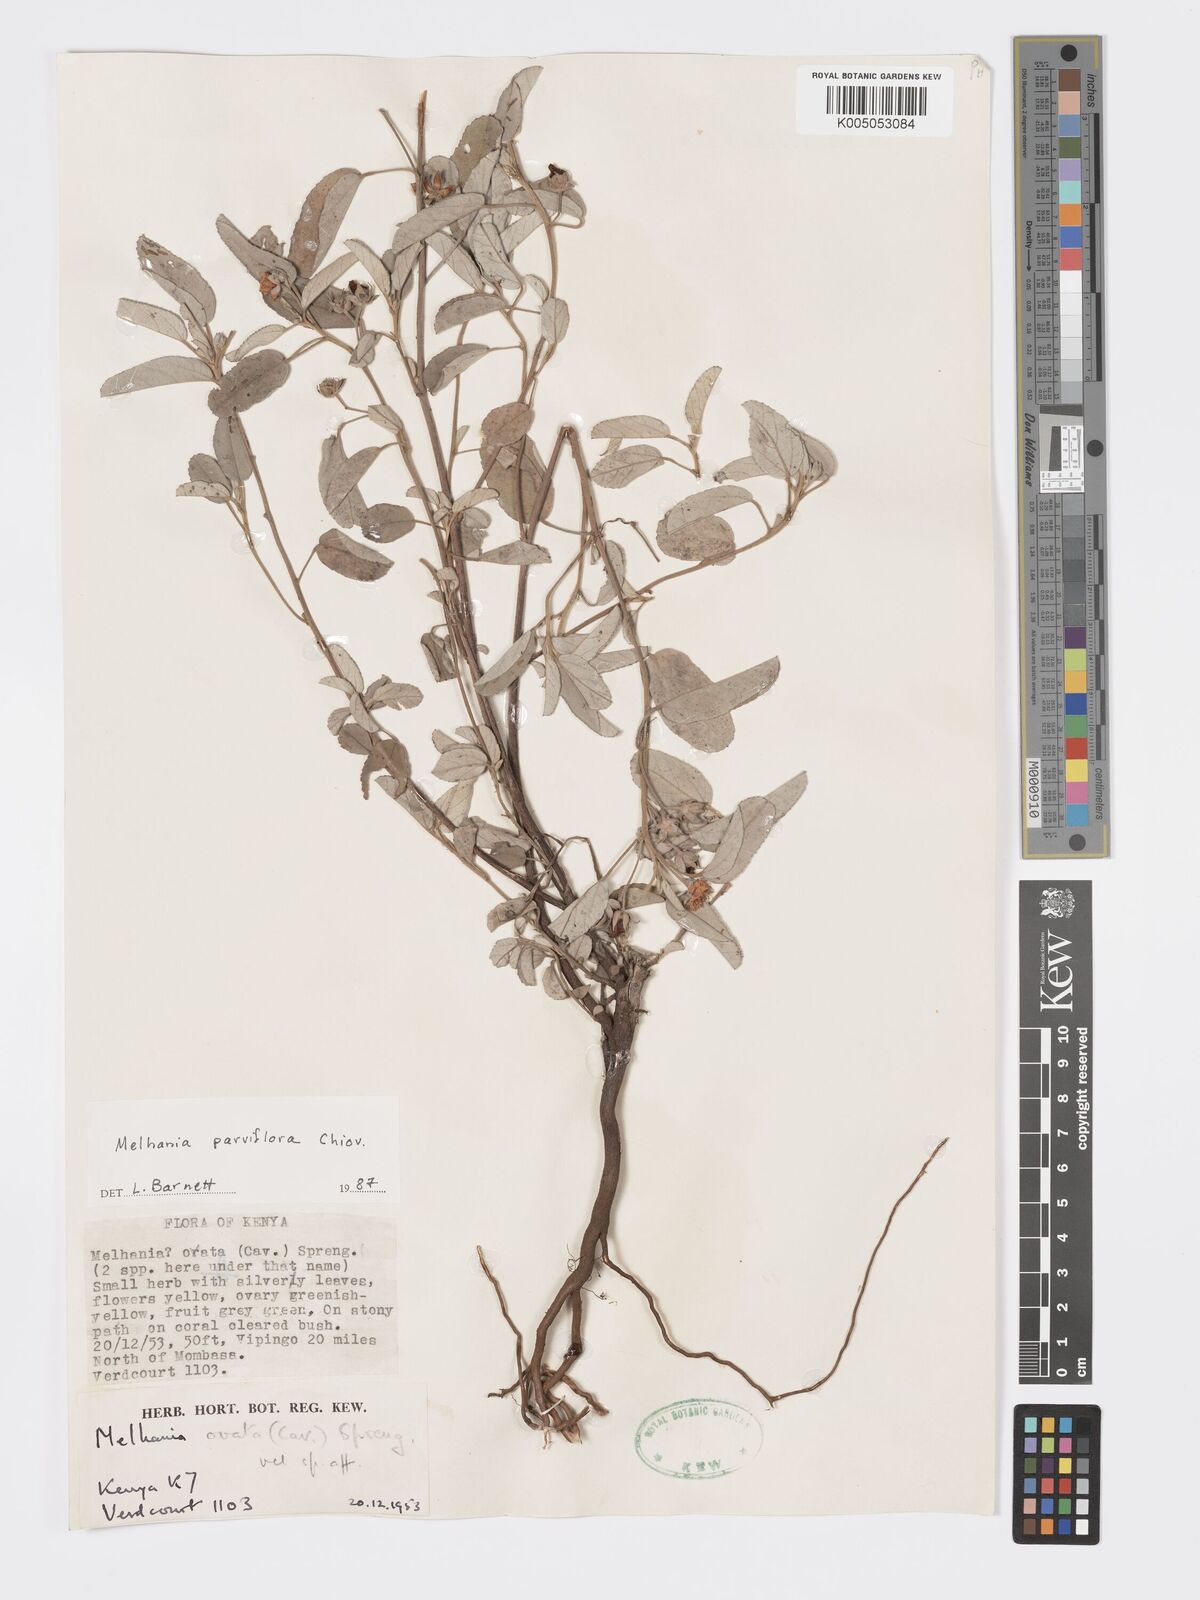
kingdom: Plantae
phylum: Tracheophyta
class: Magnoliopsida
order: Malvales
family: Malvaceae
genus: Melhania
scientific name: Melhania parviflora
